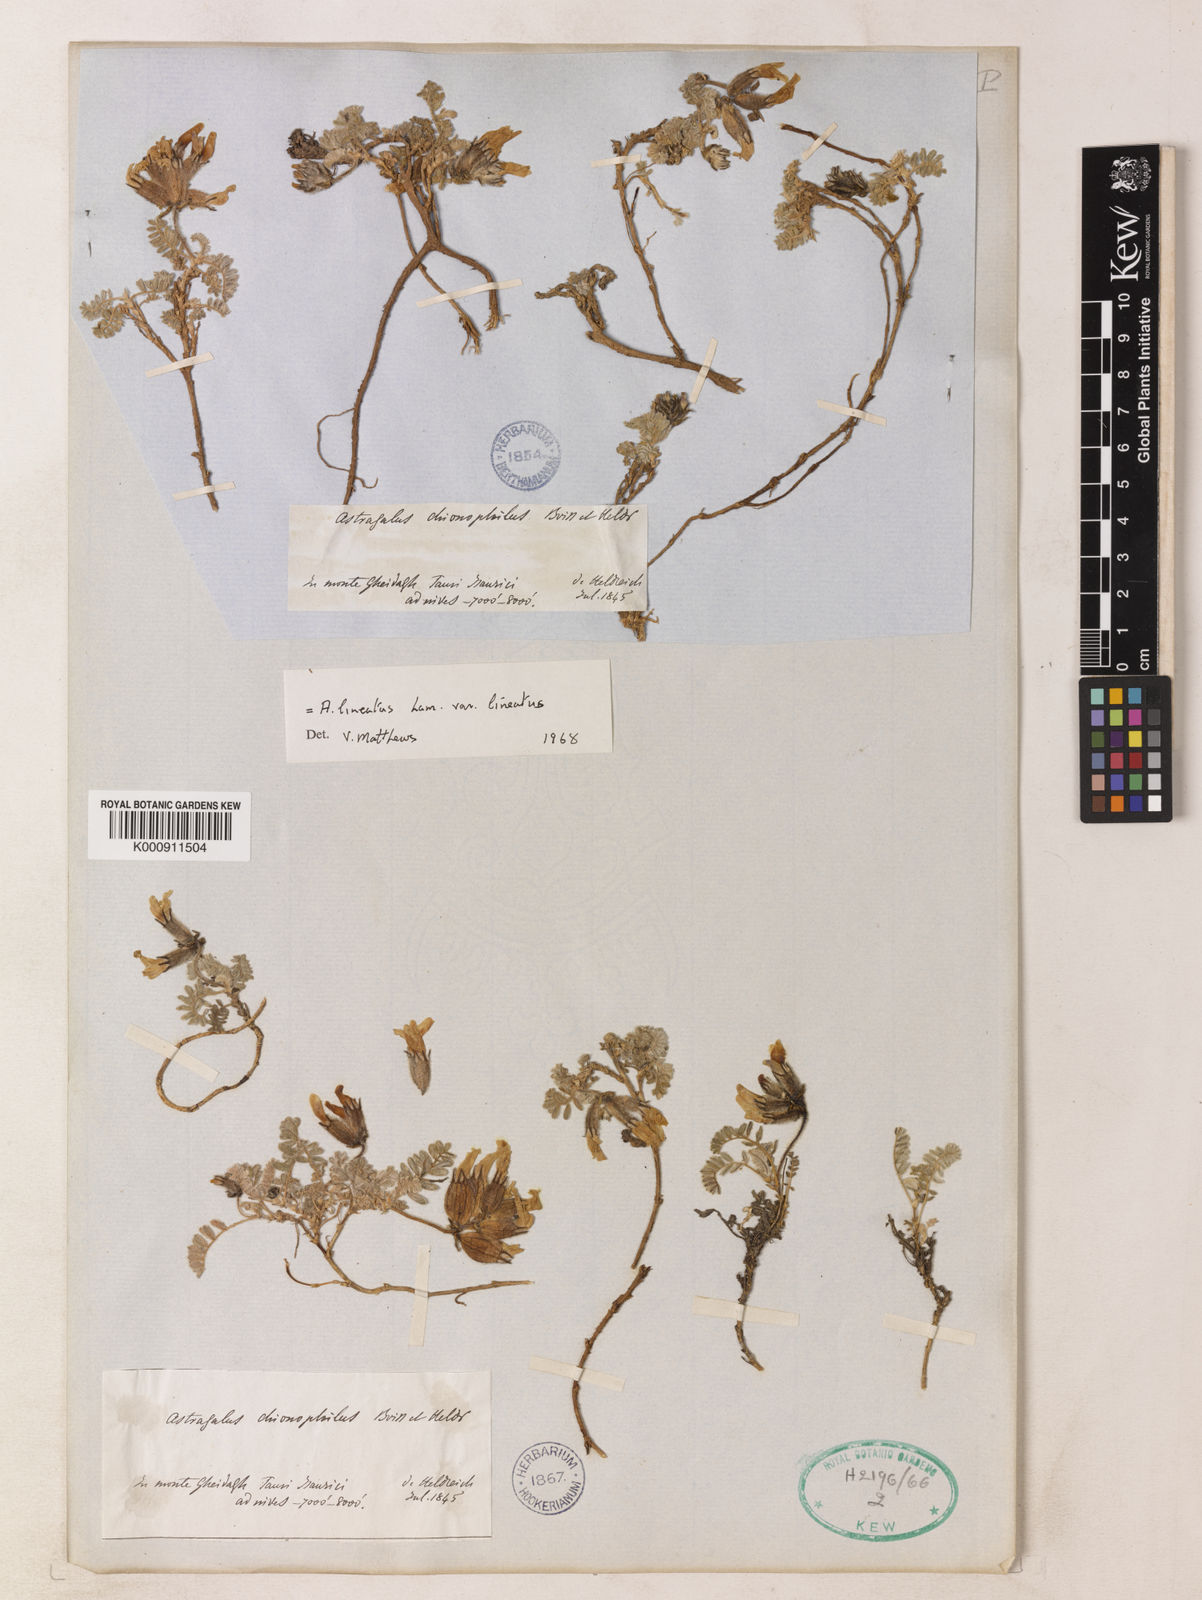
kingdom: Plantae
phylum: Tracheophyta
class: Magnoliopsida
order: Fabales
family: Fabaceae
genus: Astragalus
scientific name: Astragalus lineatus
